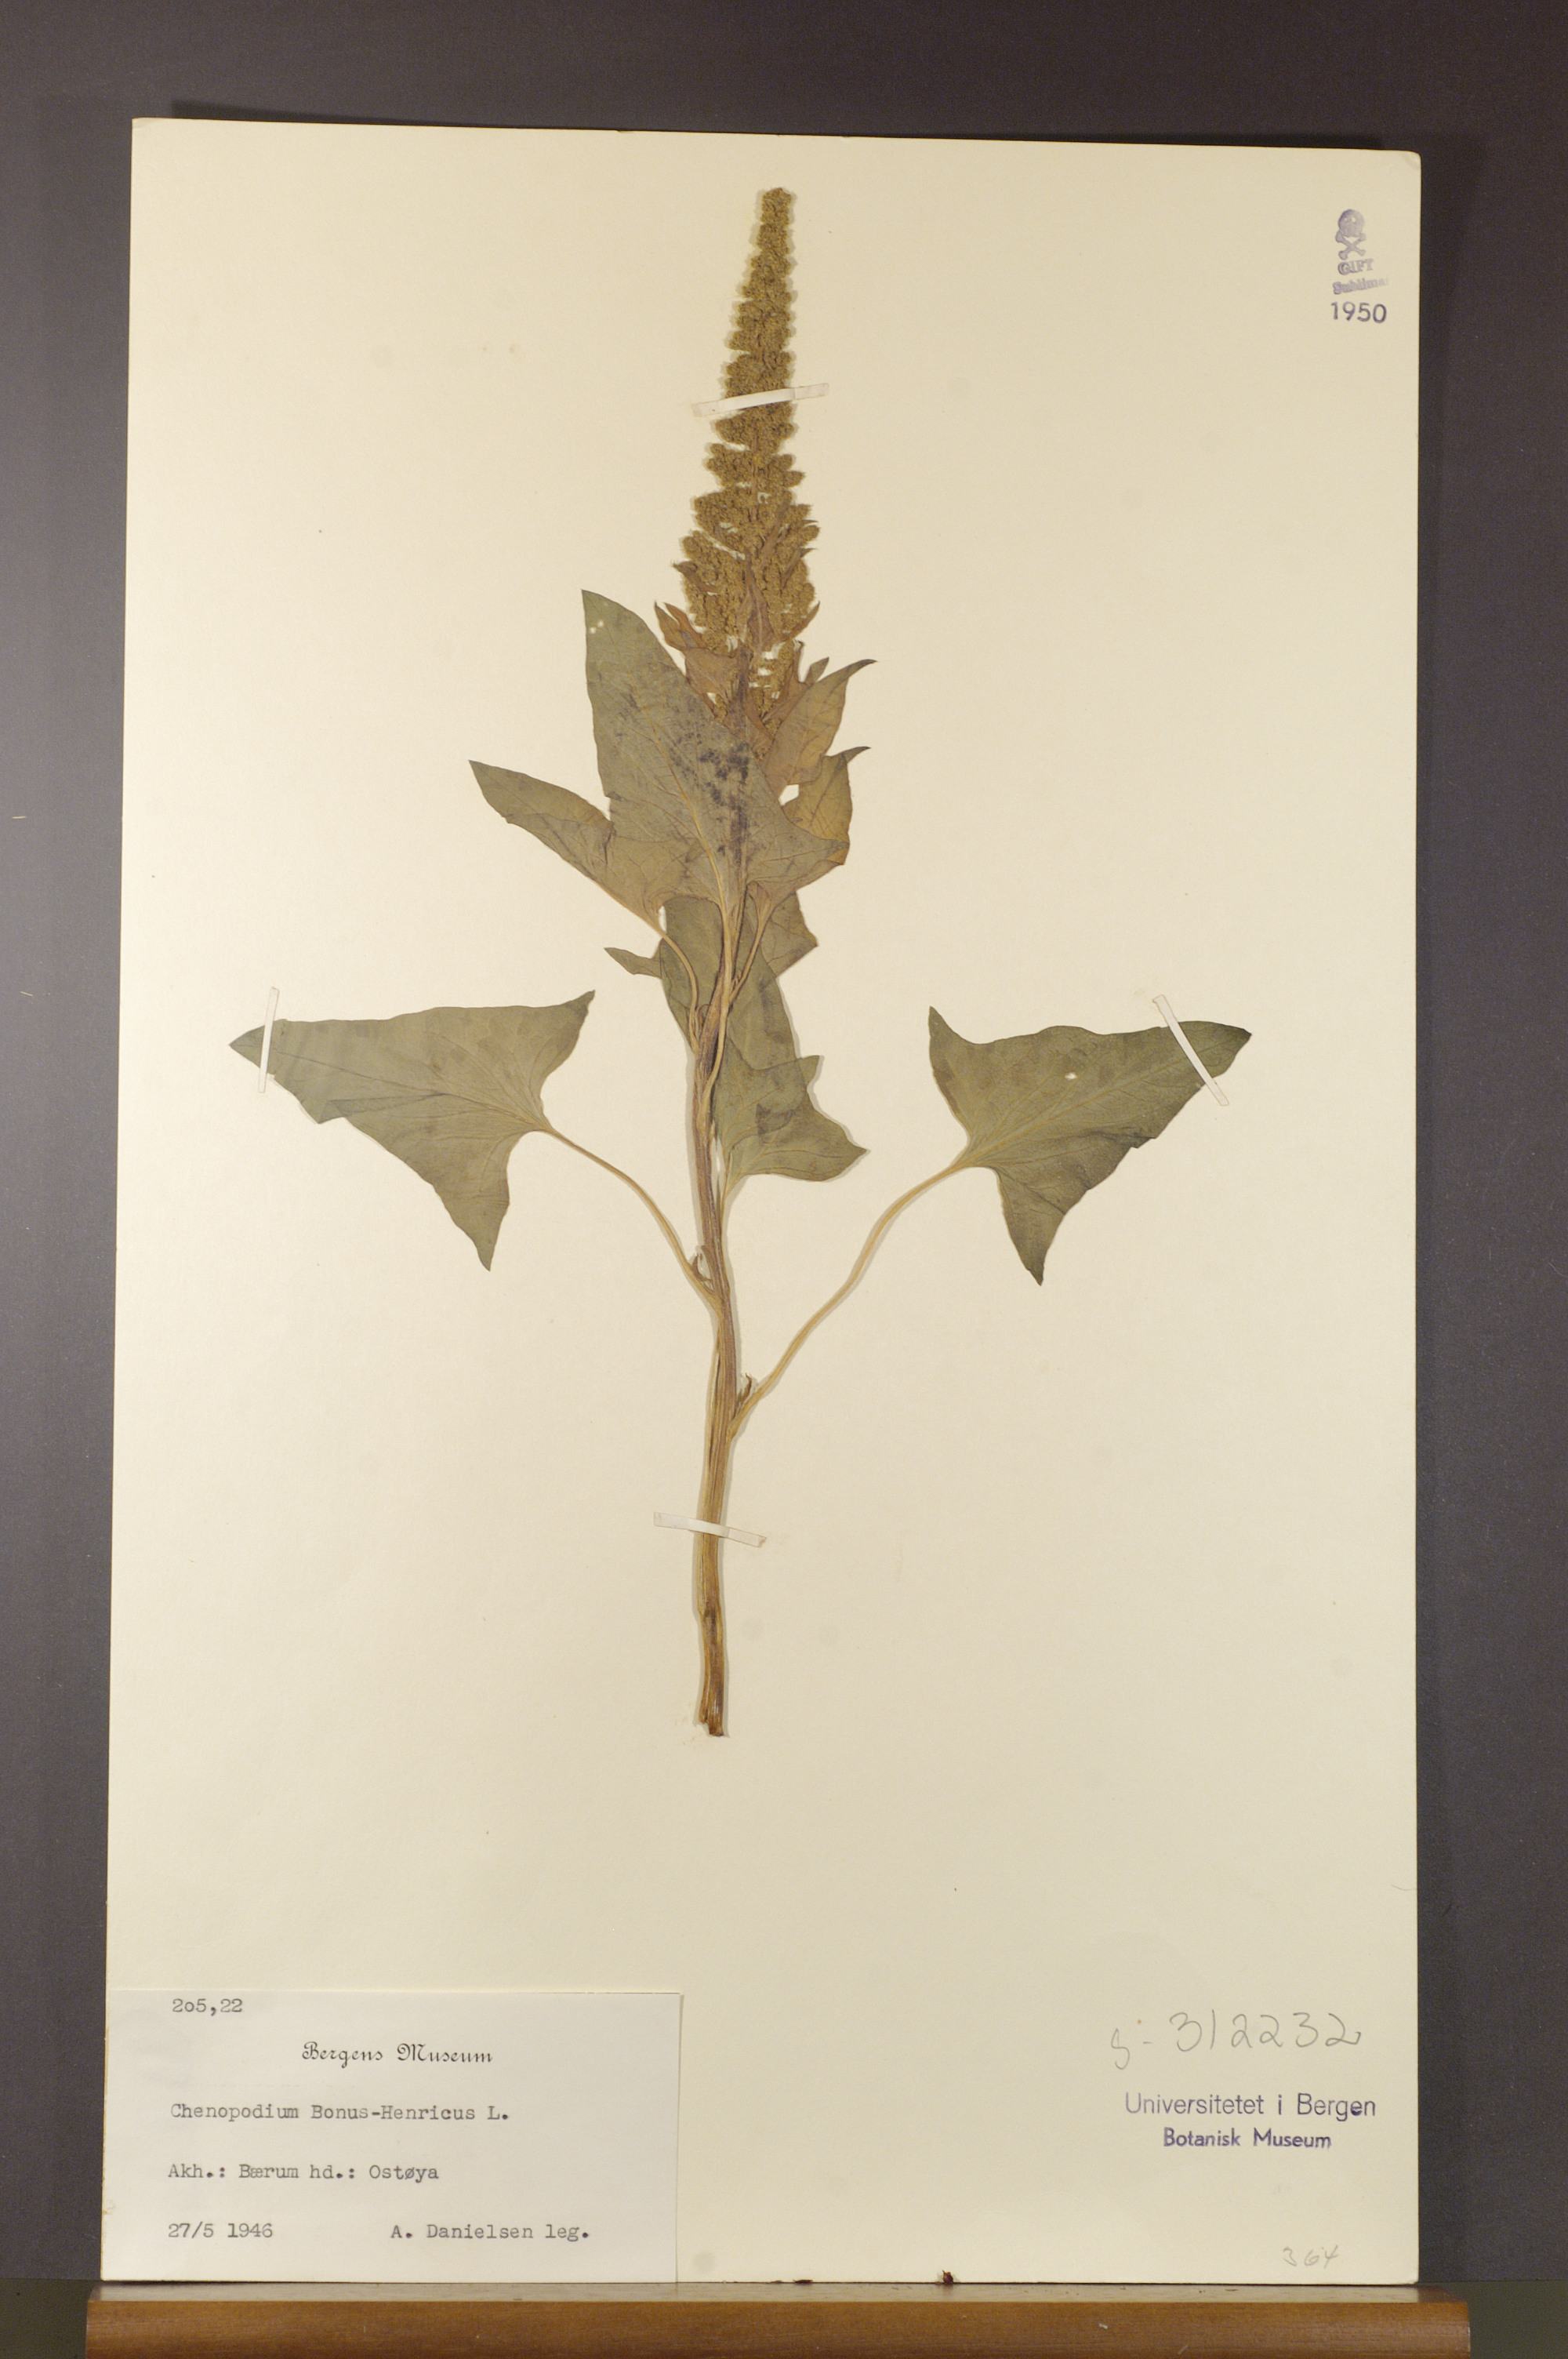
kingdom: Plantae
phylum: Tracheophyta
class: Magnoliopsida
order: Caryophyllales
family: Amaranthaceae
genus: Blitum
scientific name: Blitum bonus-henricus
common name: Good king henry
